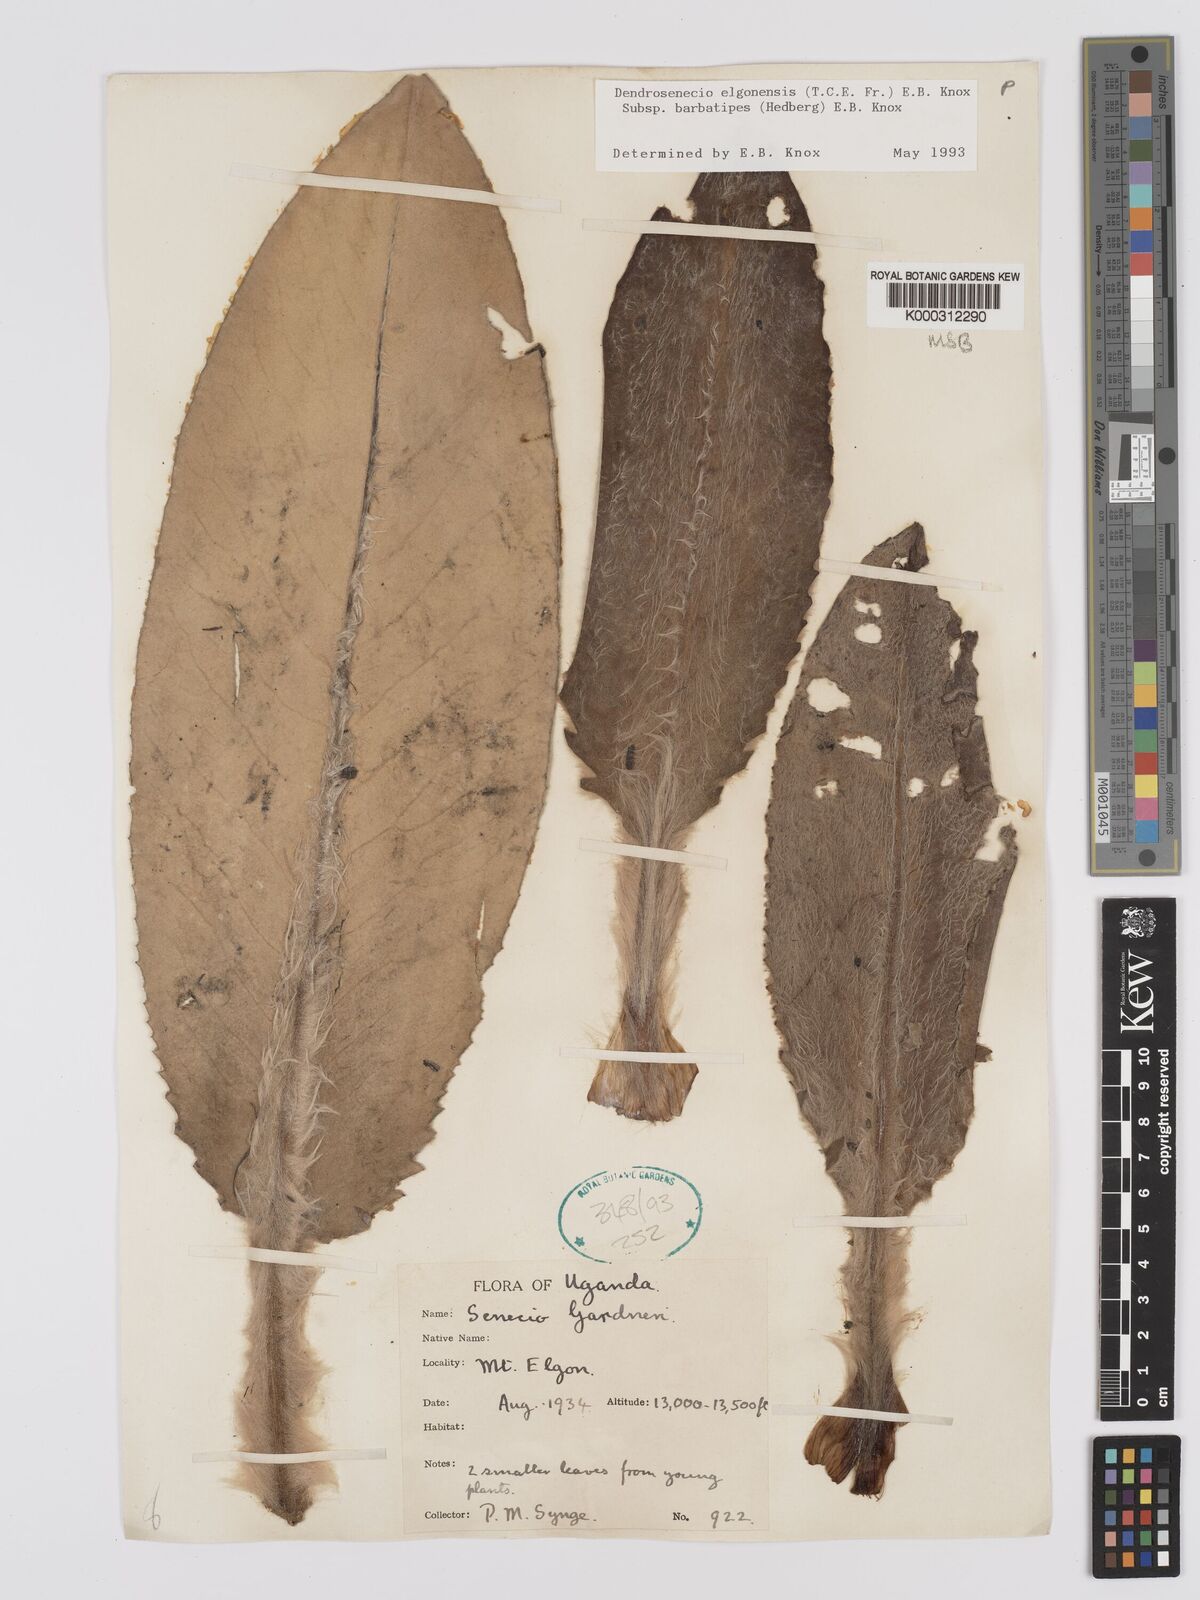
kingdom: Plantae
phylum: Tracheophyta
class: Magnoliopsida
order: Asterales
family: Asteraceae
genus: Dendrosenecio
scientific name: Dendrosenecio elgonensis
